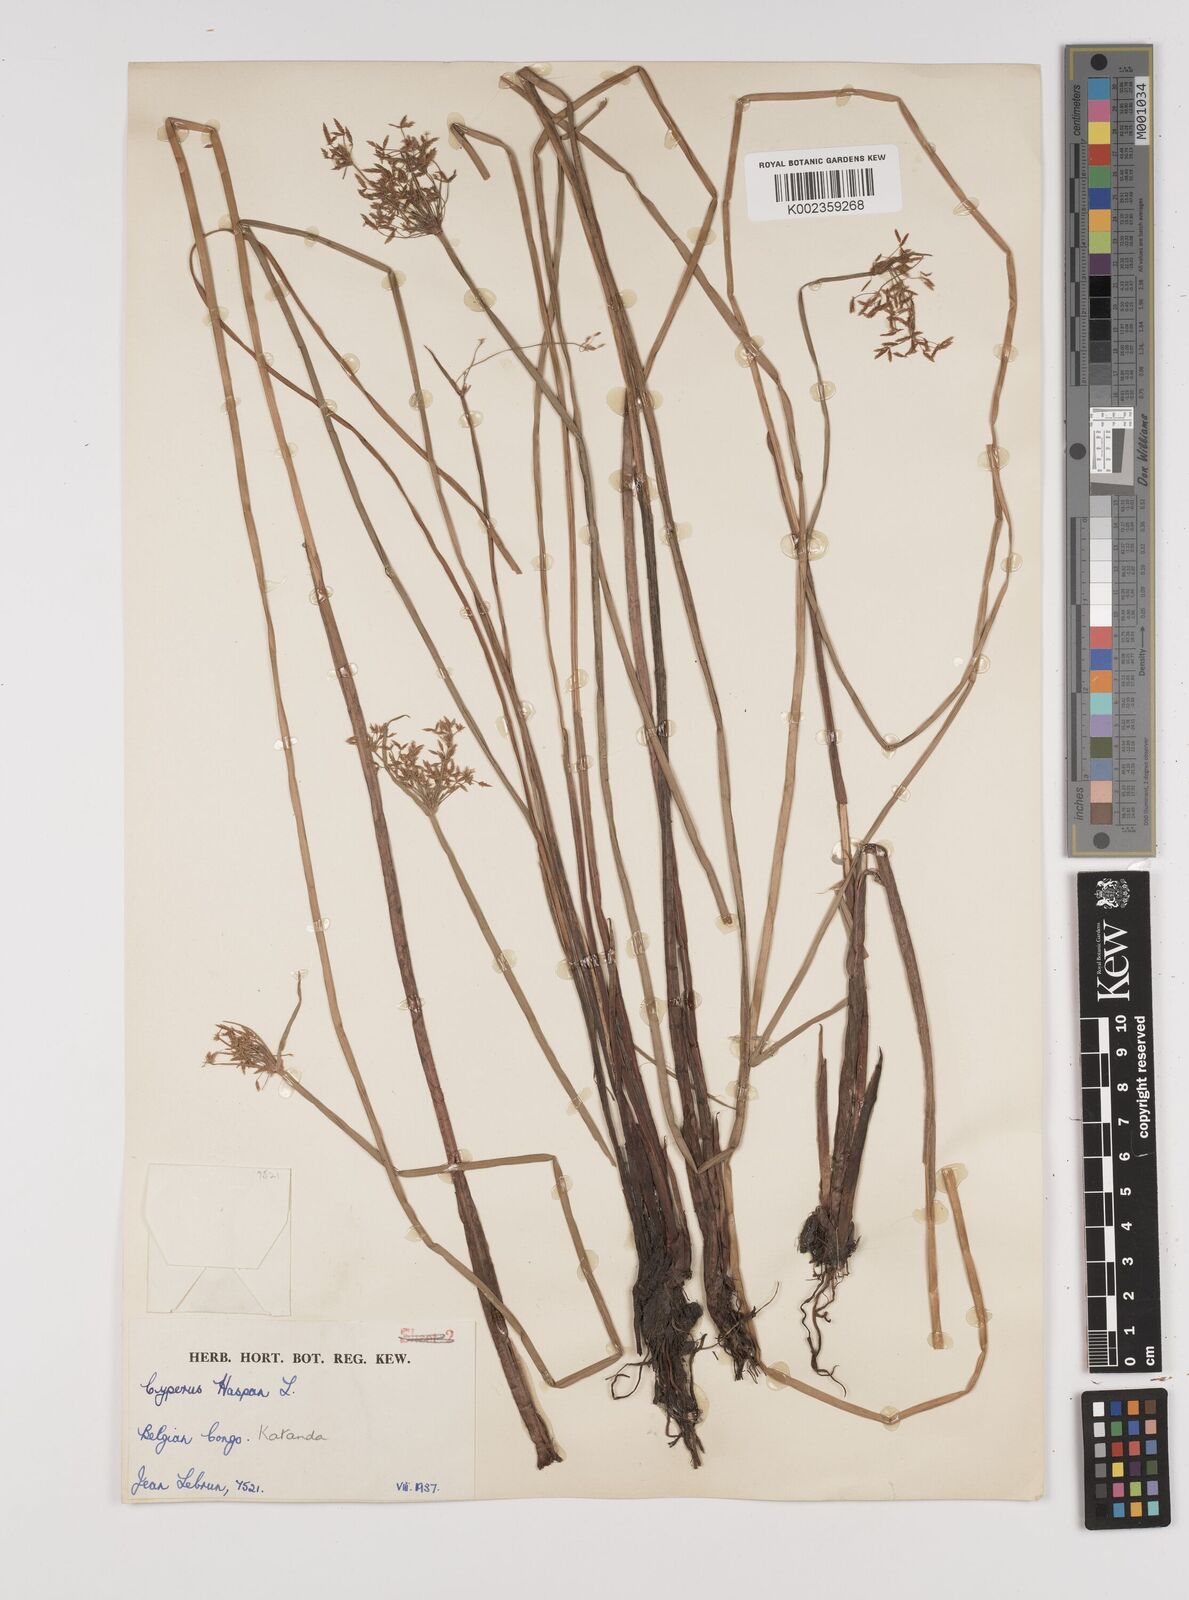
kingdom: Plantae
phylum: Tracheophyta
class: Liliopsida
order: Poales
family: Cyperaceae
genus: Cyperus
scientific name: Cyperus haspan
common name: Haspan flatsedge
